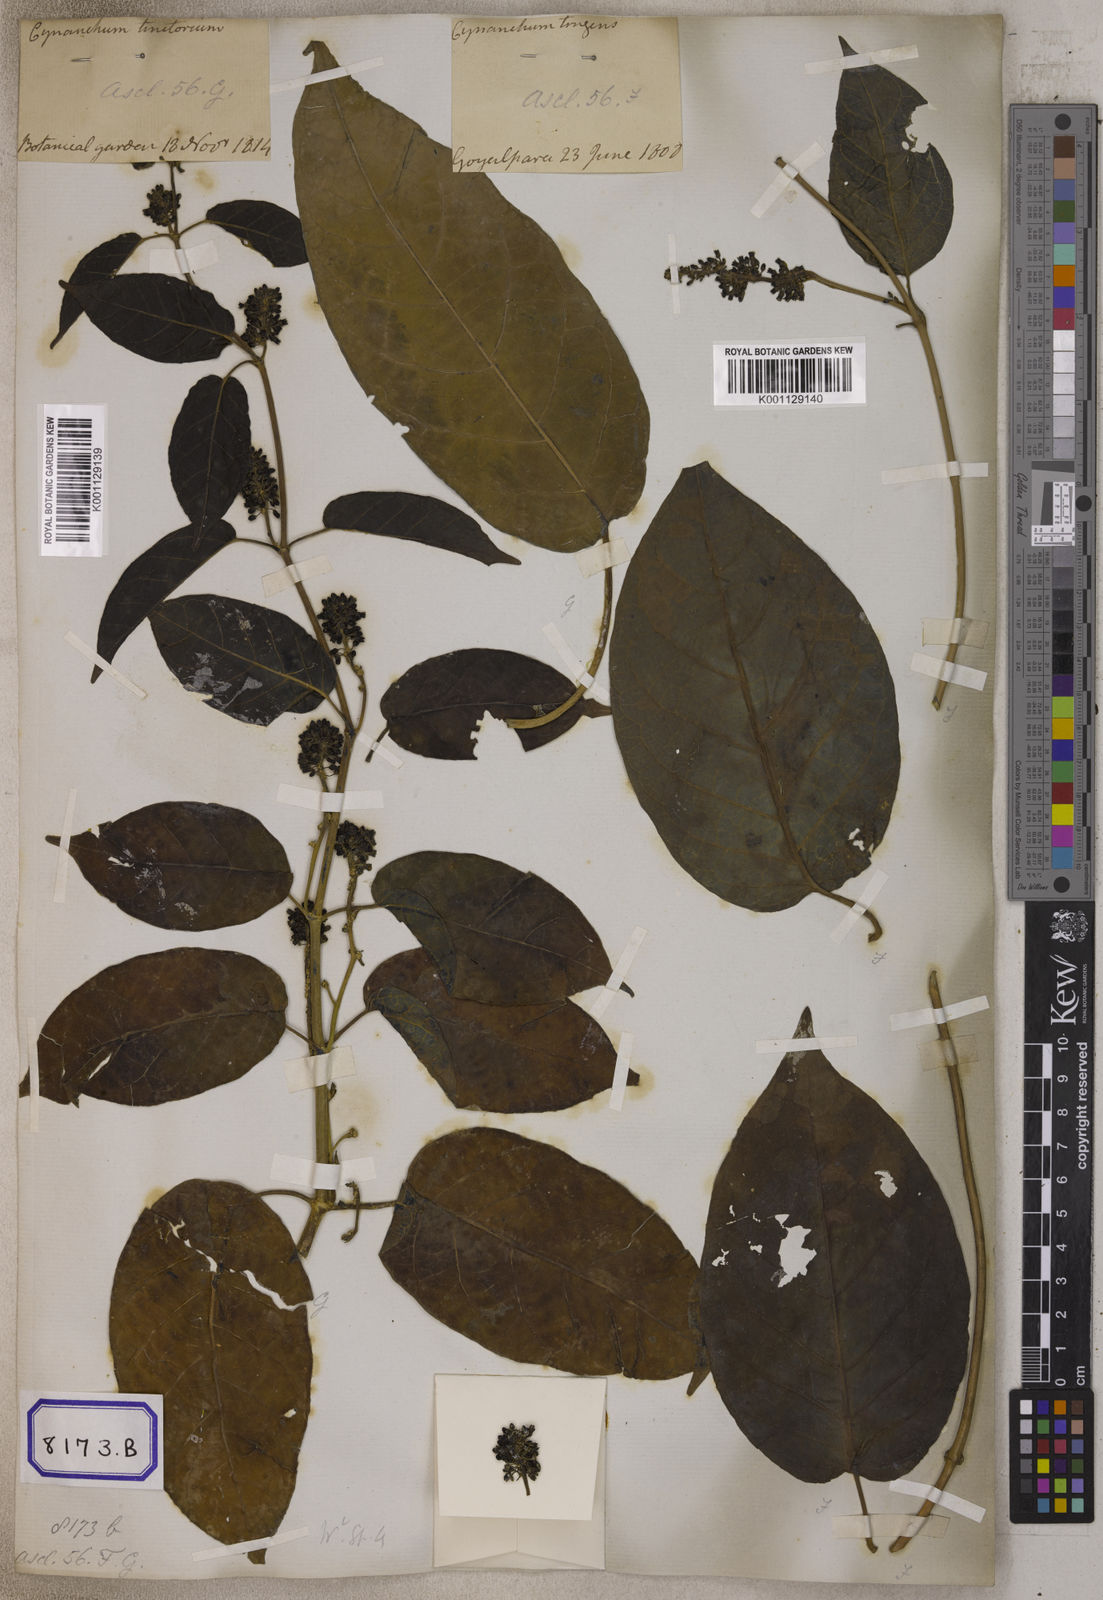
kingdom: Plantae
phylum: Tracheophyta
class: Magnoliopsida
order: Gentianales
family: Apocynaceae
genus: Marsdenia
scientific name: Marsdenia tinctoria
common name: Climbing-indigo
